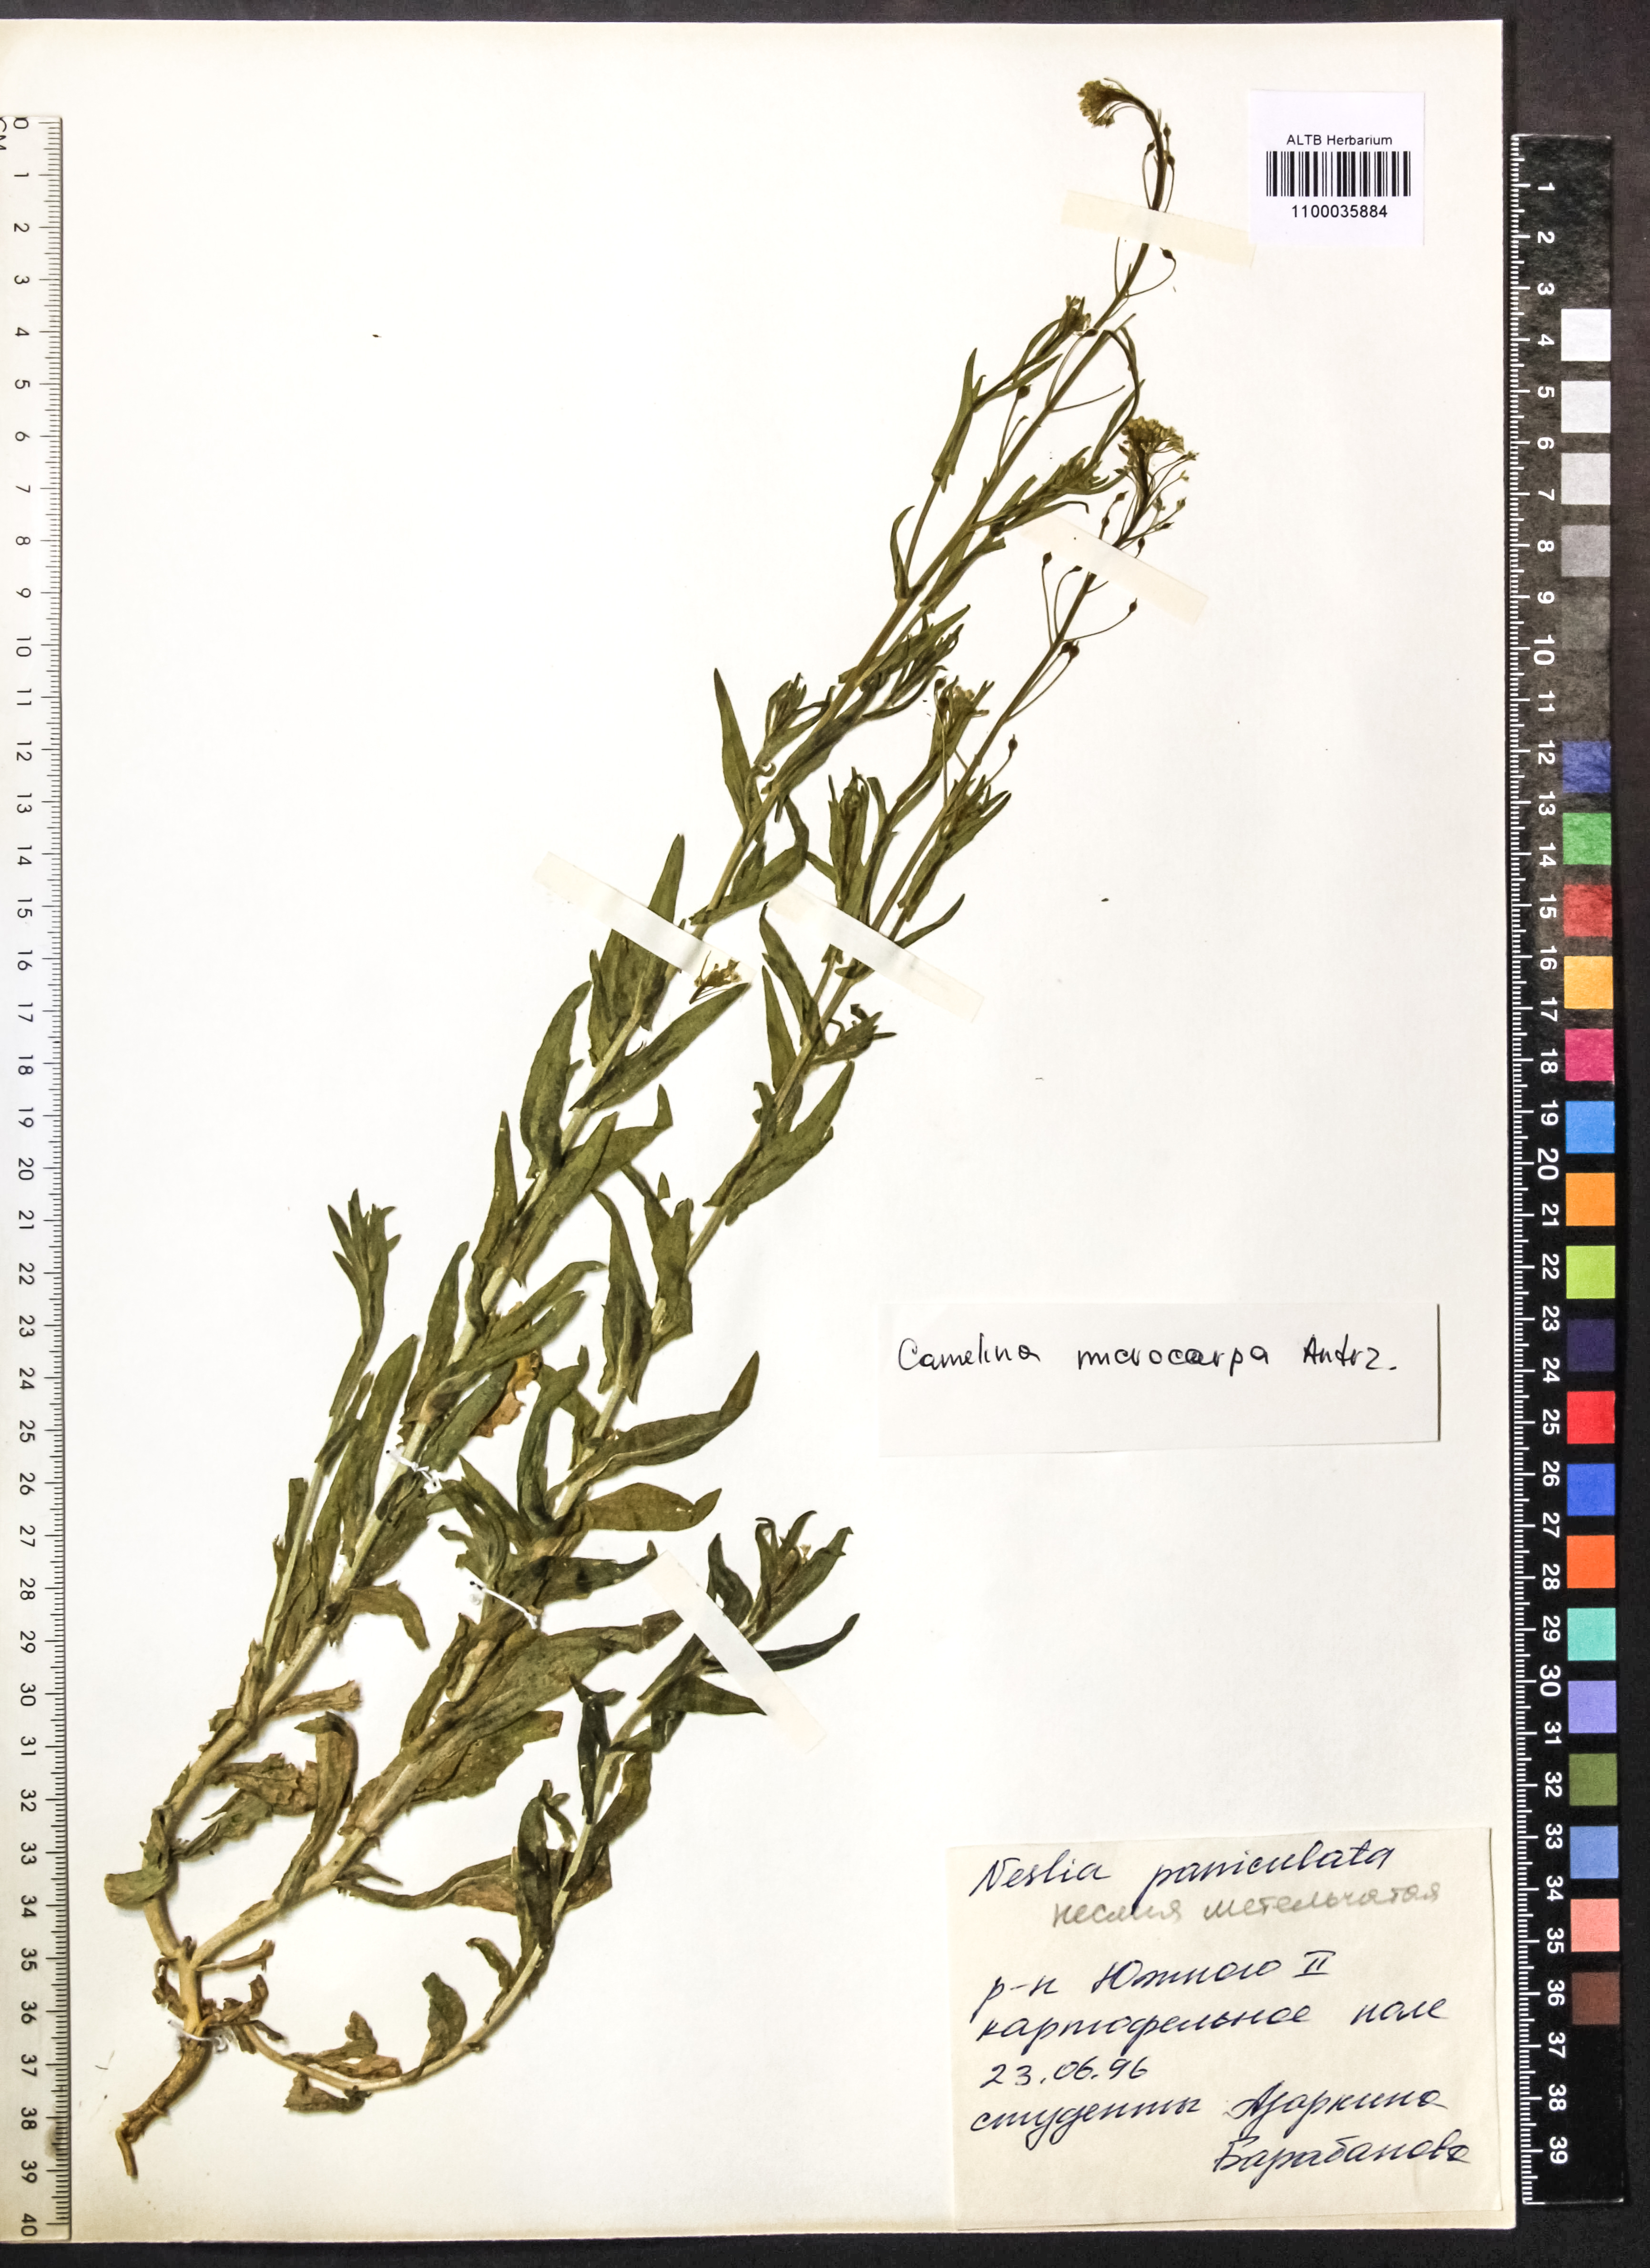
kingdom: Plantae
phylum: Tracheophyta
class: Magnoliopsida
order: Brassicales
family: Brassicaceae
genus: Camelina
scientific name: Camelina microcarpa
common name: Lesser gold-of-pleasure
